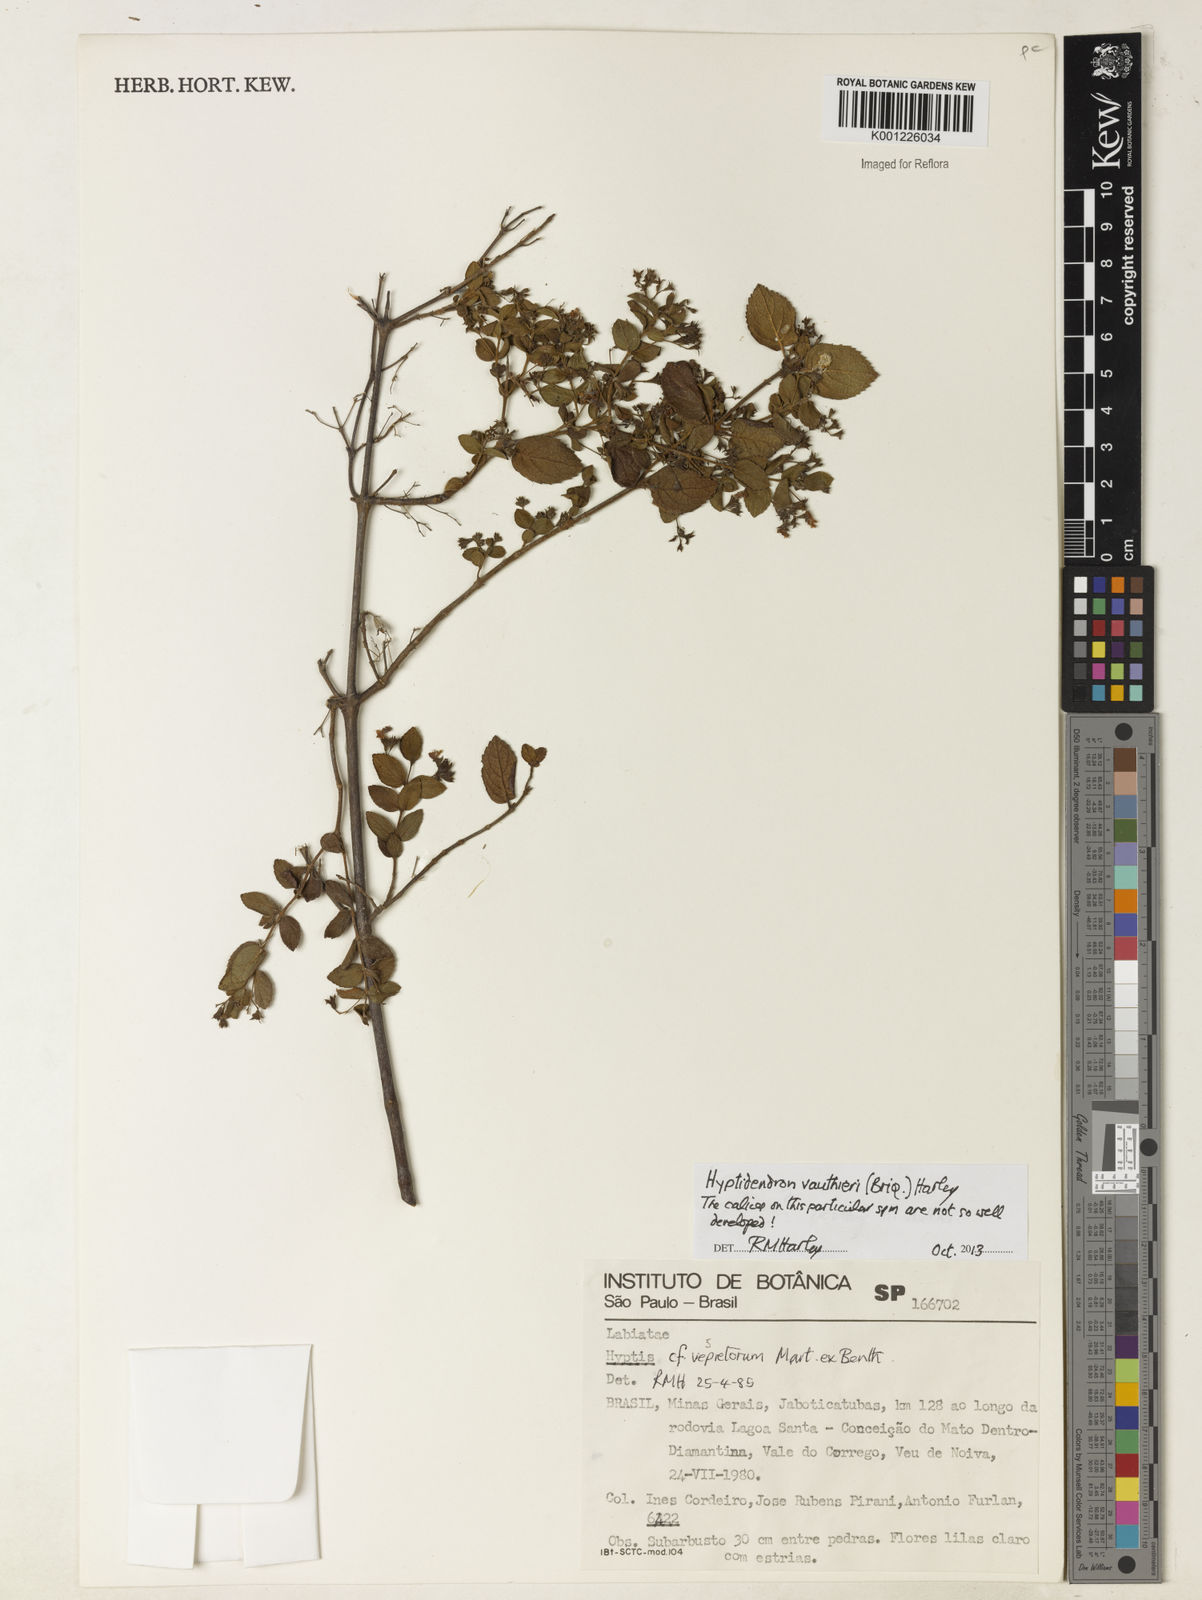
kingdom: Plantae
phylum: Tracheophyta
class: Magnoliopsida
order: Lamiales
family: Lamiaceae
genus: Hyptidendron
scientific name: Hyptidendron vauthieri
